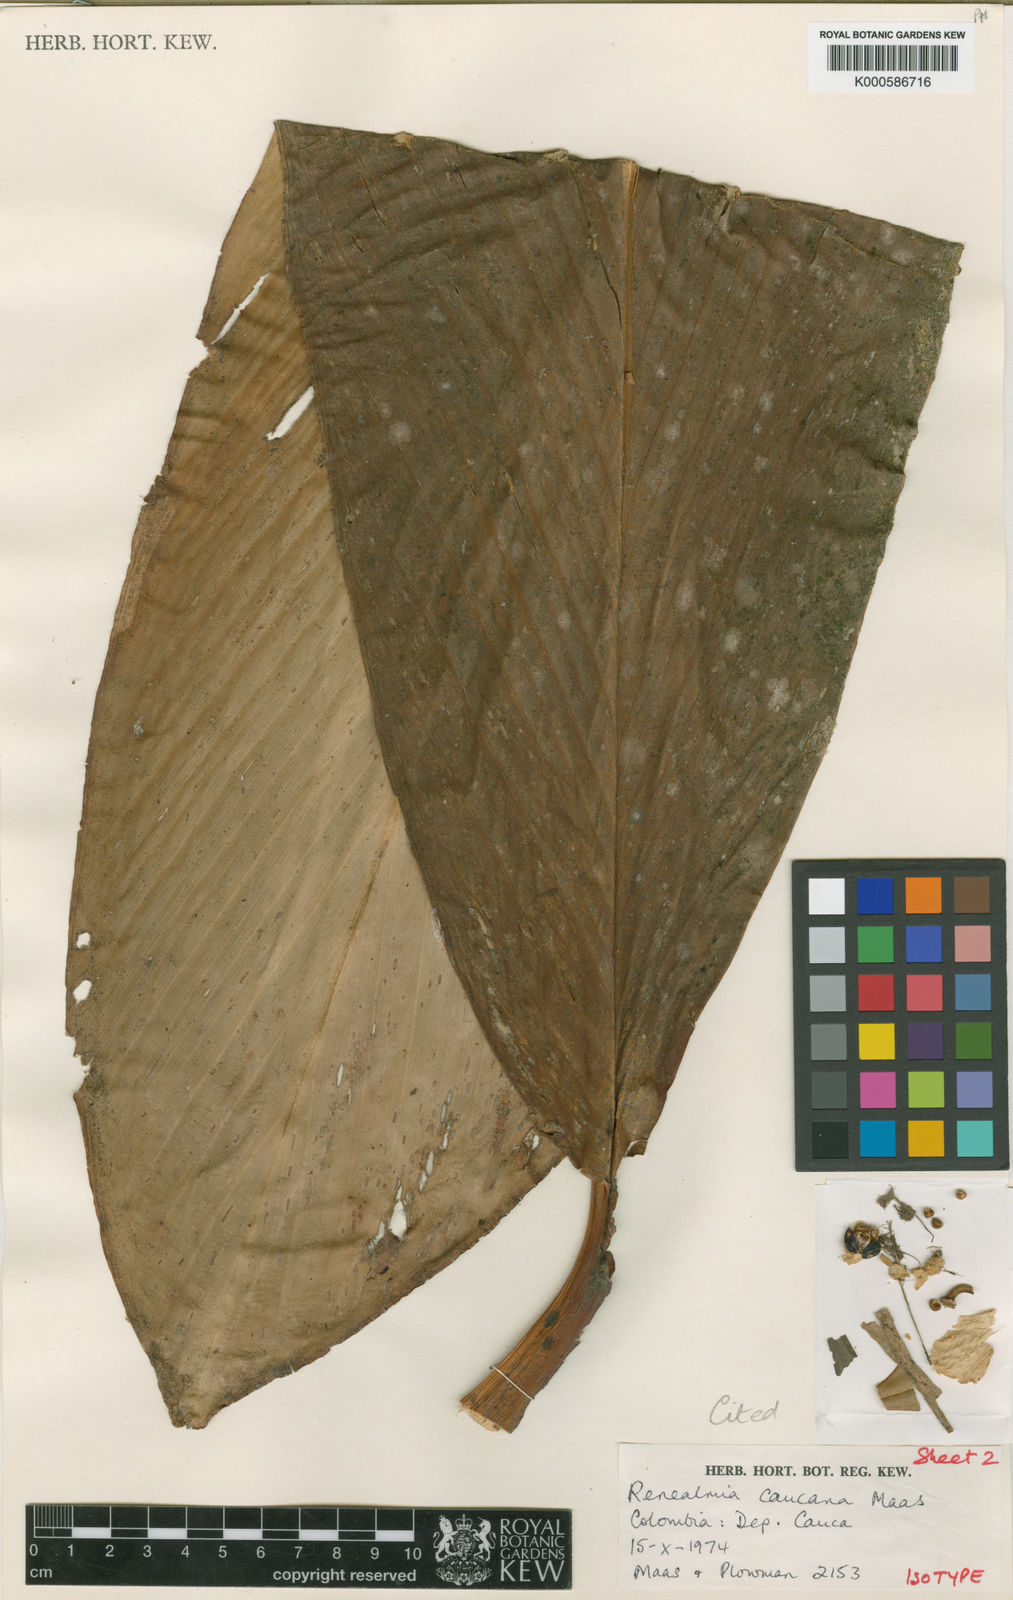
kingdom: Plantae
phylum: Tracheophyta
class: Liliopsida
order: Zingiberales
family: Zingiberaceae
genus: Renealmia
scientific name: Renealmia caucana
